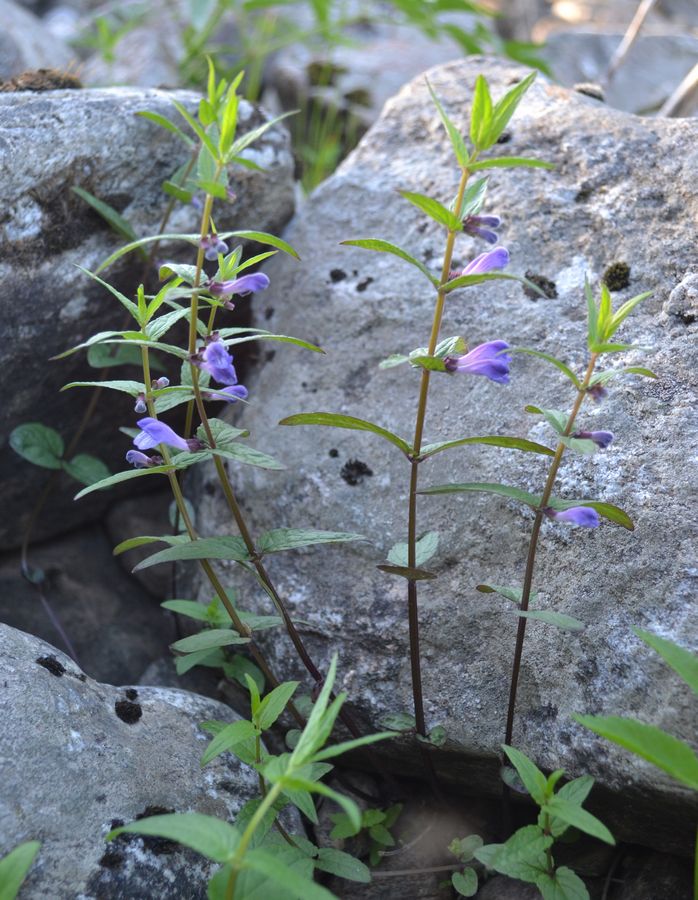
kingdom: Plantae
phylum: Tracheophyta
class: Magnoliopsida
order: Lamiales
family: Lamiaceae
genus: Scutellaria
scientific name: Scutellaria galericulata
